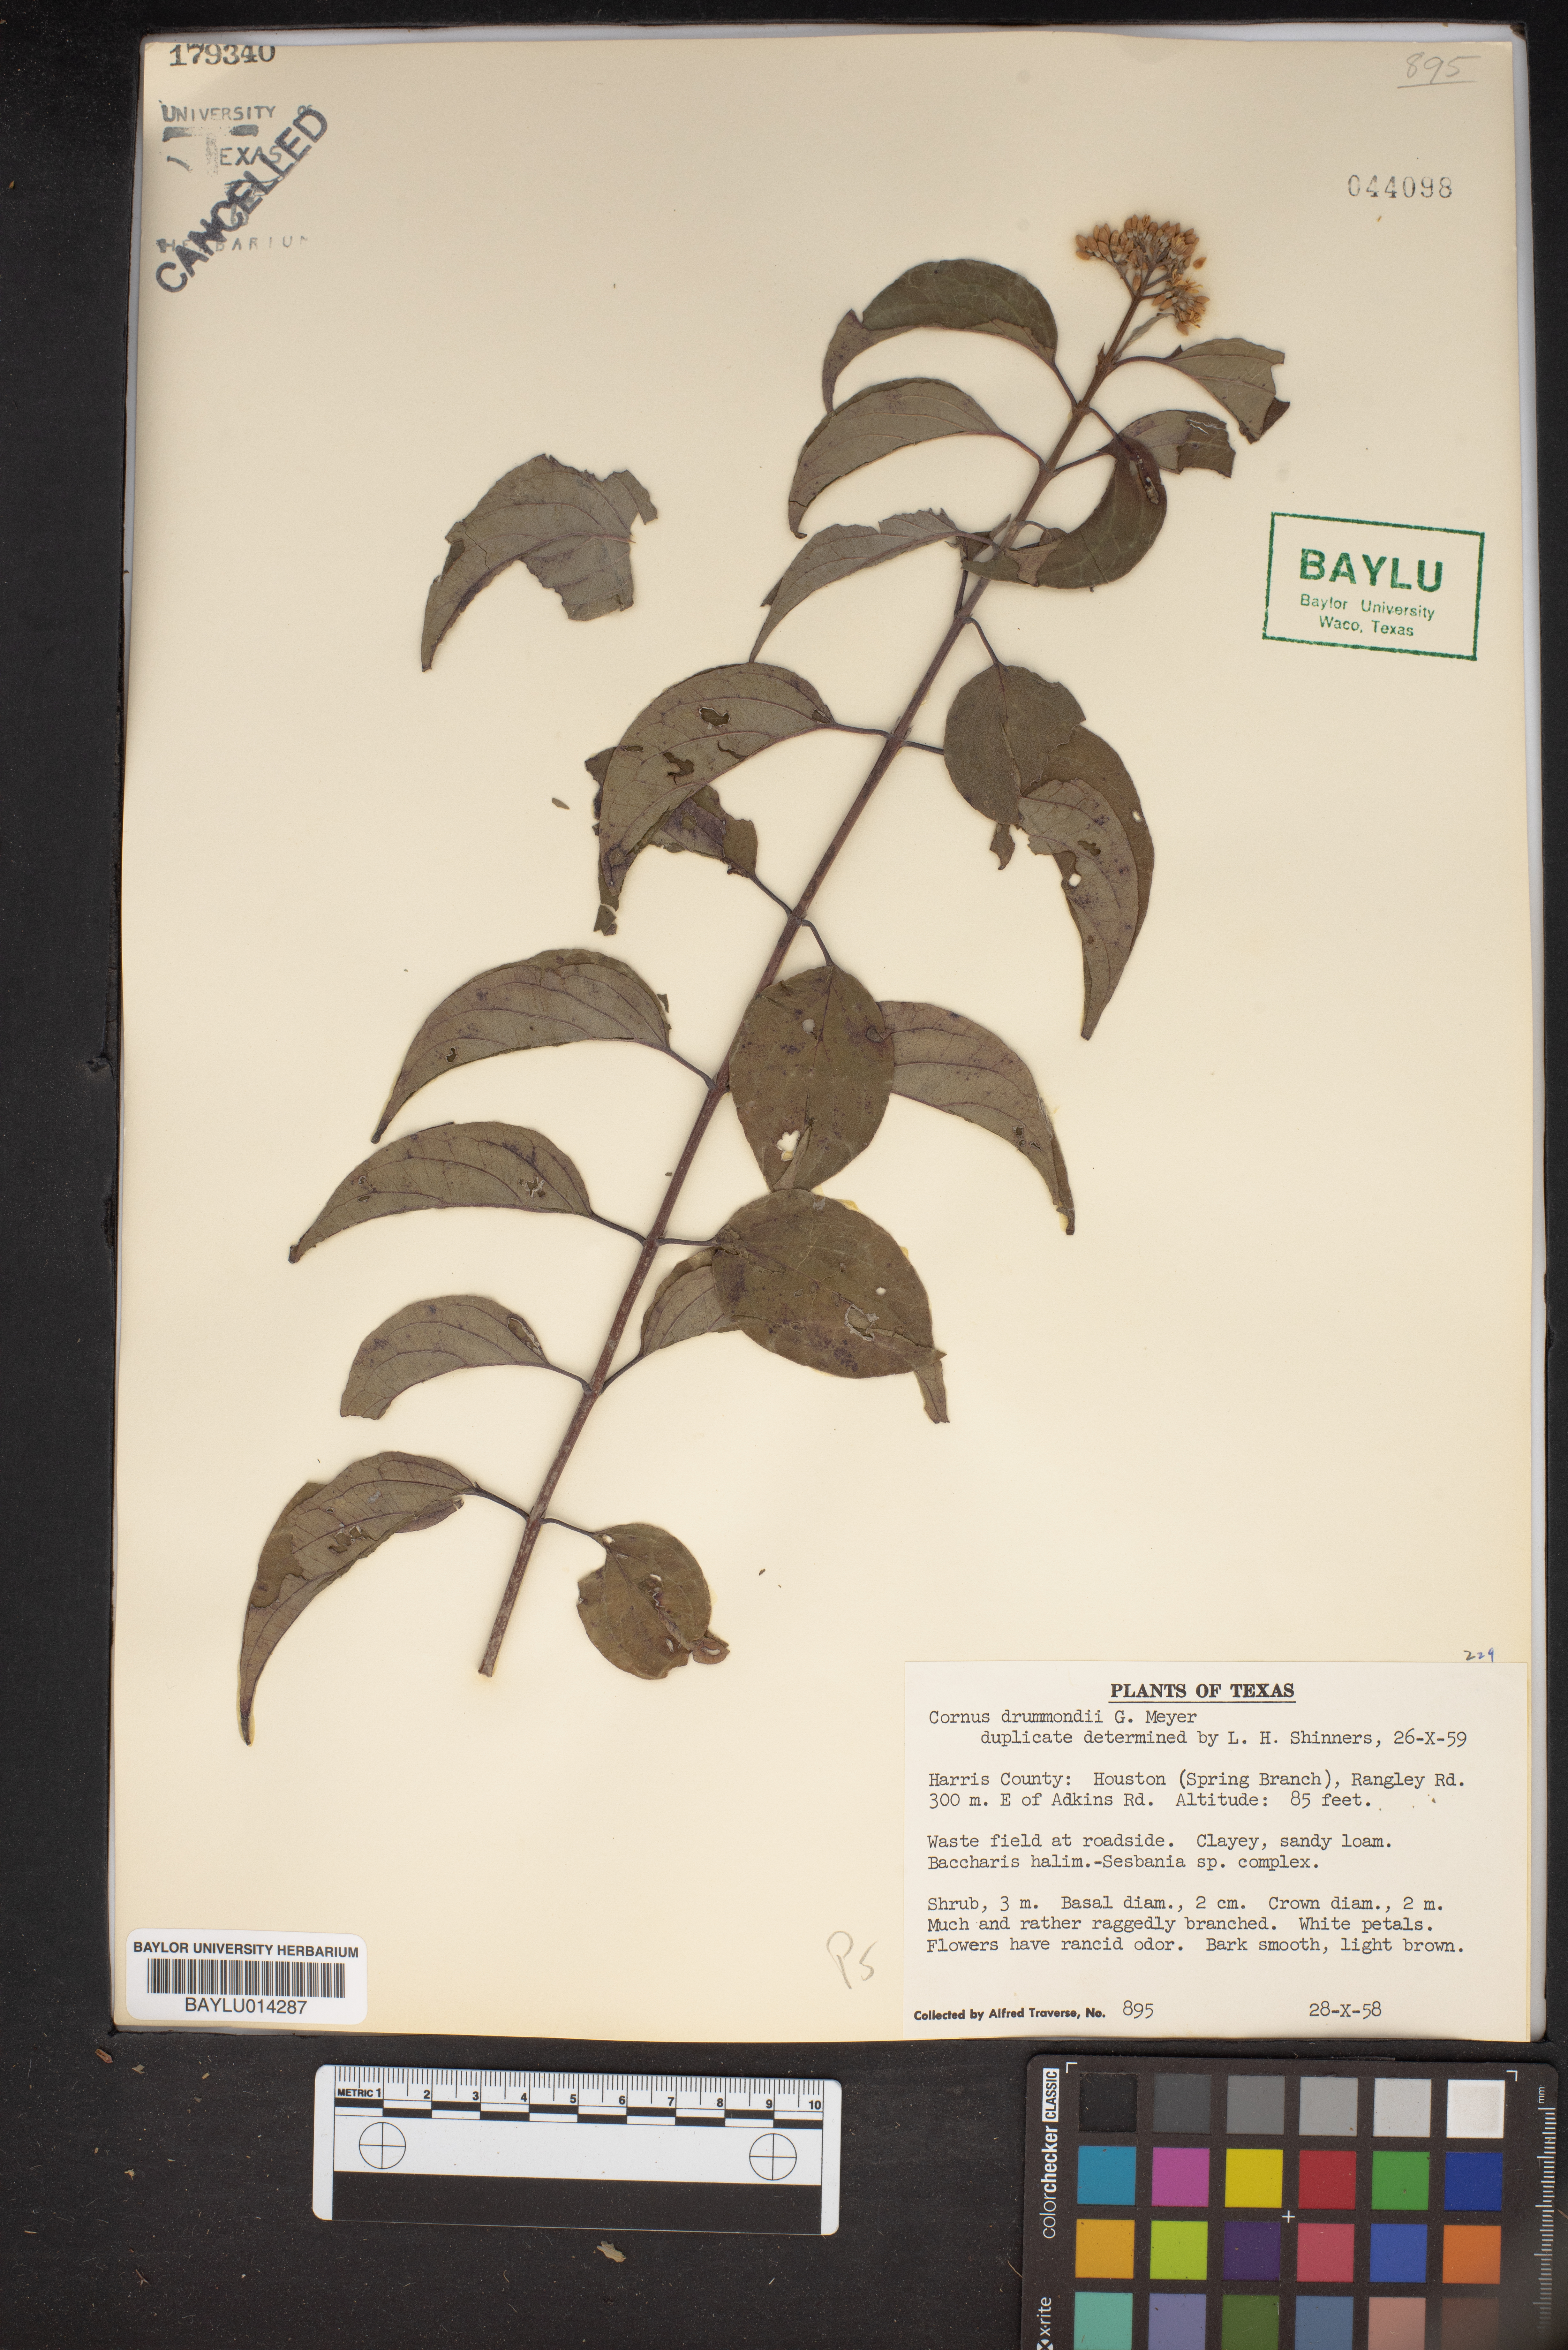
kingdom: Plantae
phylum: Tracheophyta
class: Magnoliopsida
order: Cornales
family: Cornaceae
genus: Cornus
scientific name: Cornus drummondii
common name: Rough-leaf dogwood
